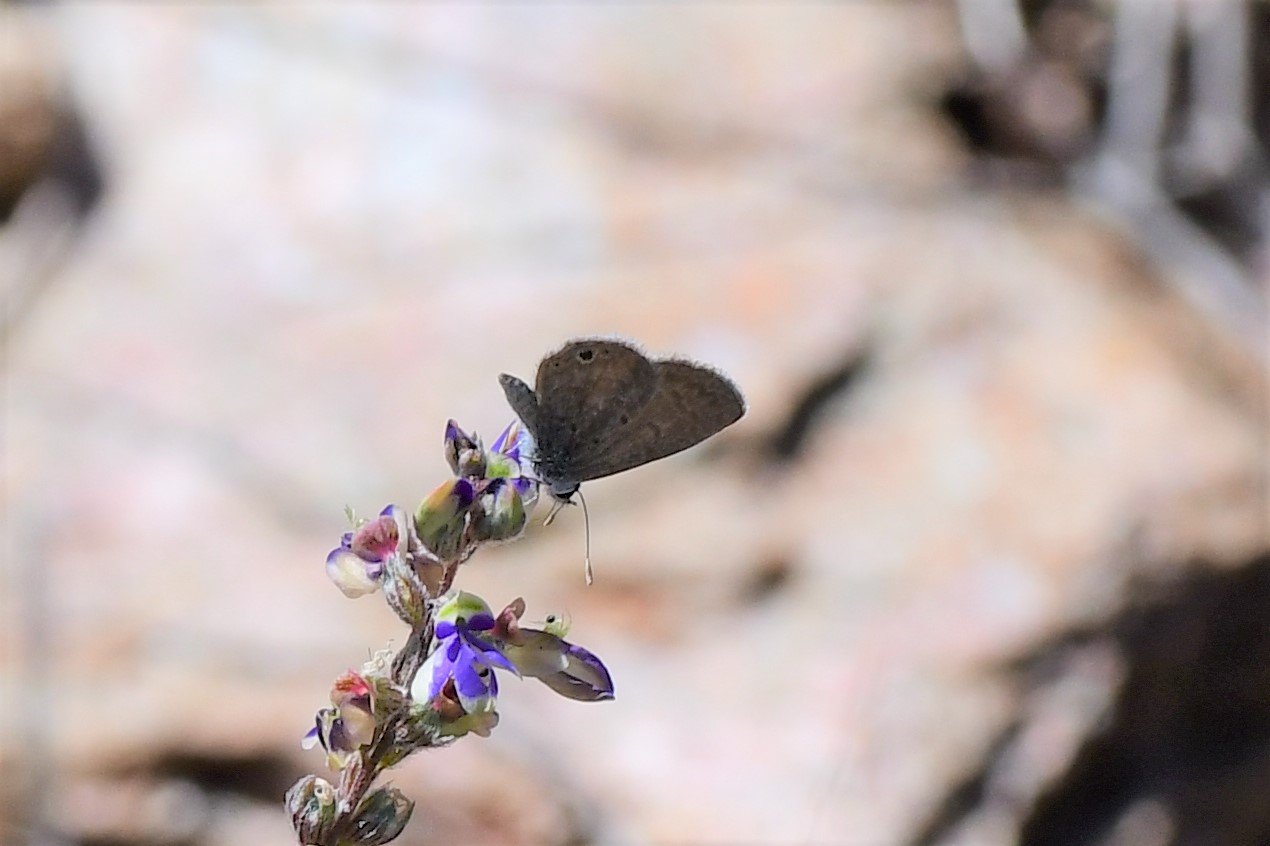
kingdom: Animalia
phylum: Arthropoda
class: Insecta
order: Lepidoptera
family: Lycaenidae
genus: Hemiargus
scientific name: Hemiargus ceraunus
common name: Ceraunus Blue
